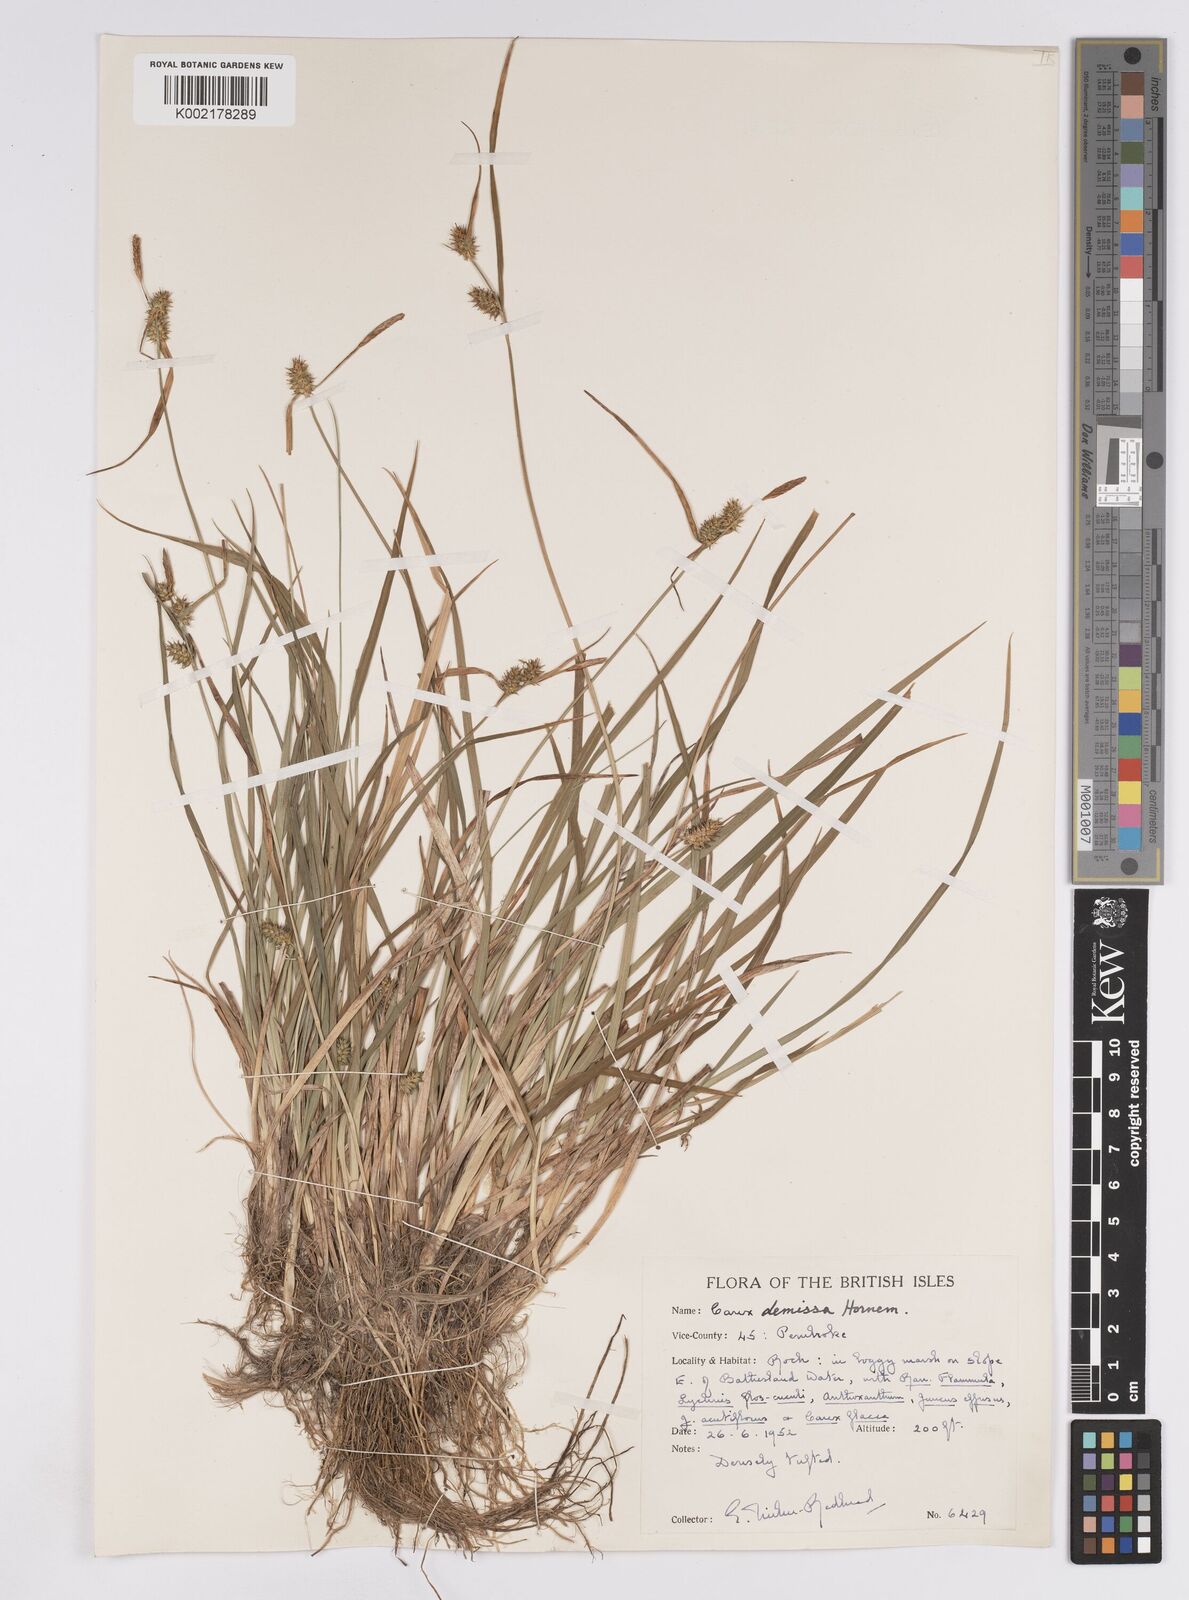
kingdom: Plantae
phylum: Tracheophyta
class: Liliopsida
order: Poales
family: Cyperaceae
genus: Carex
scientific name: Carex demissa
